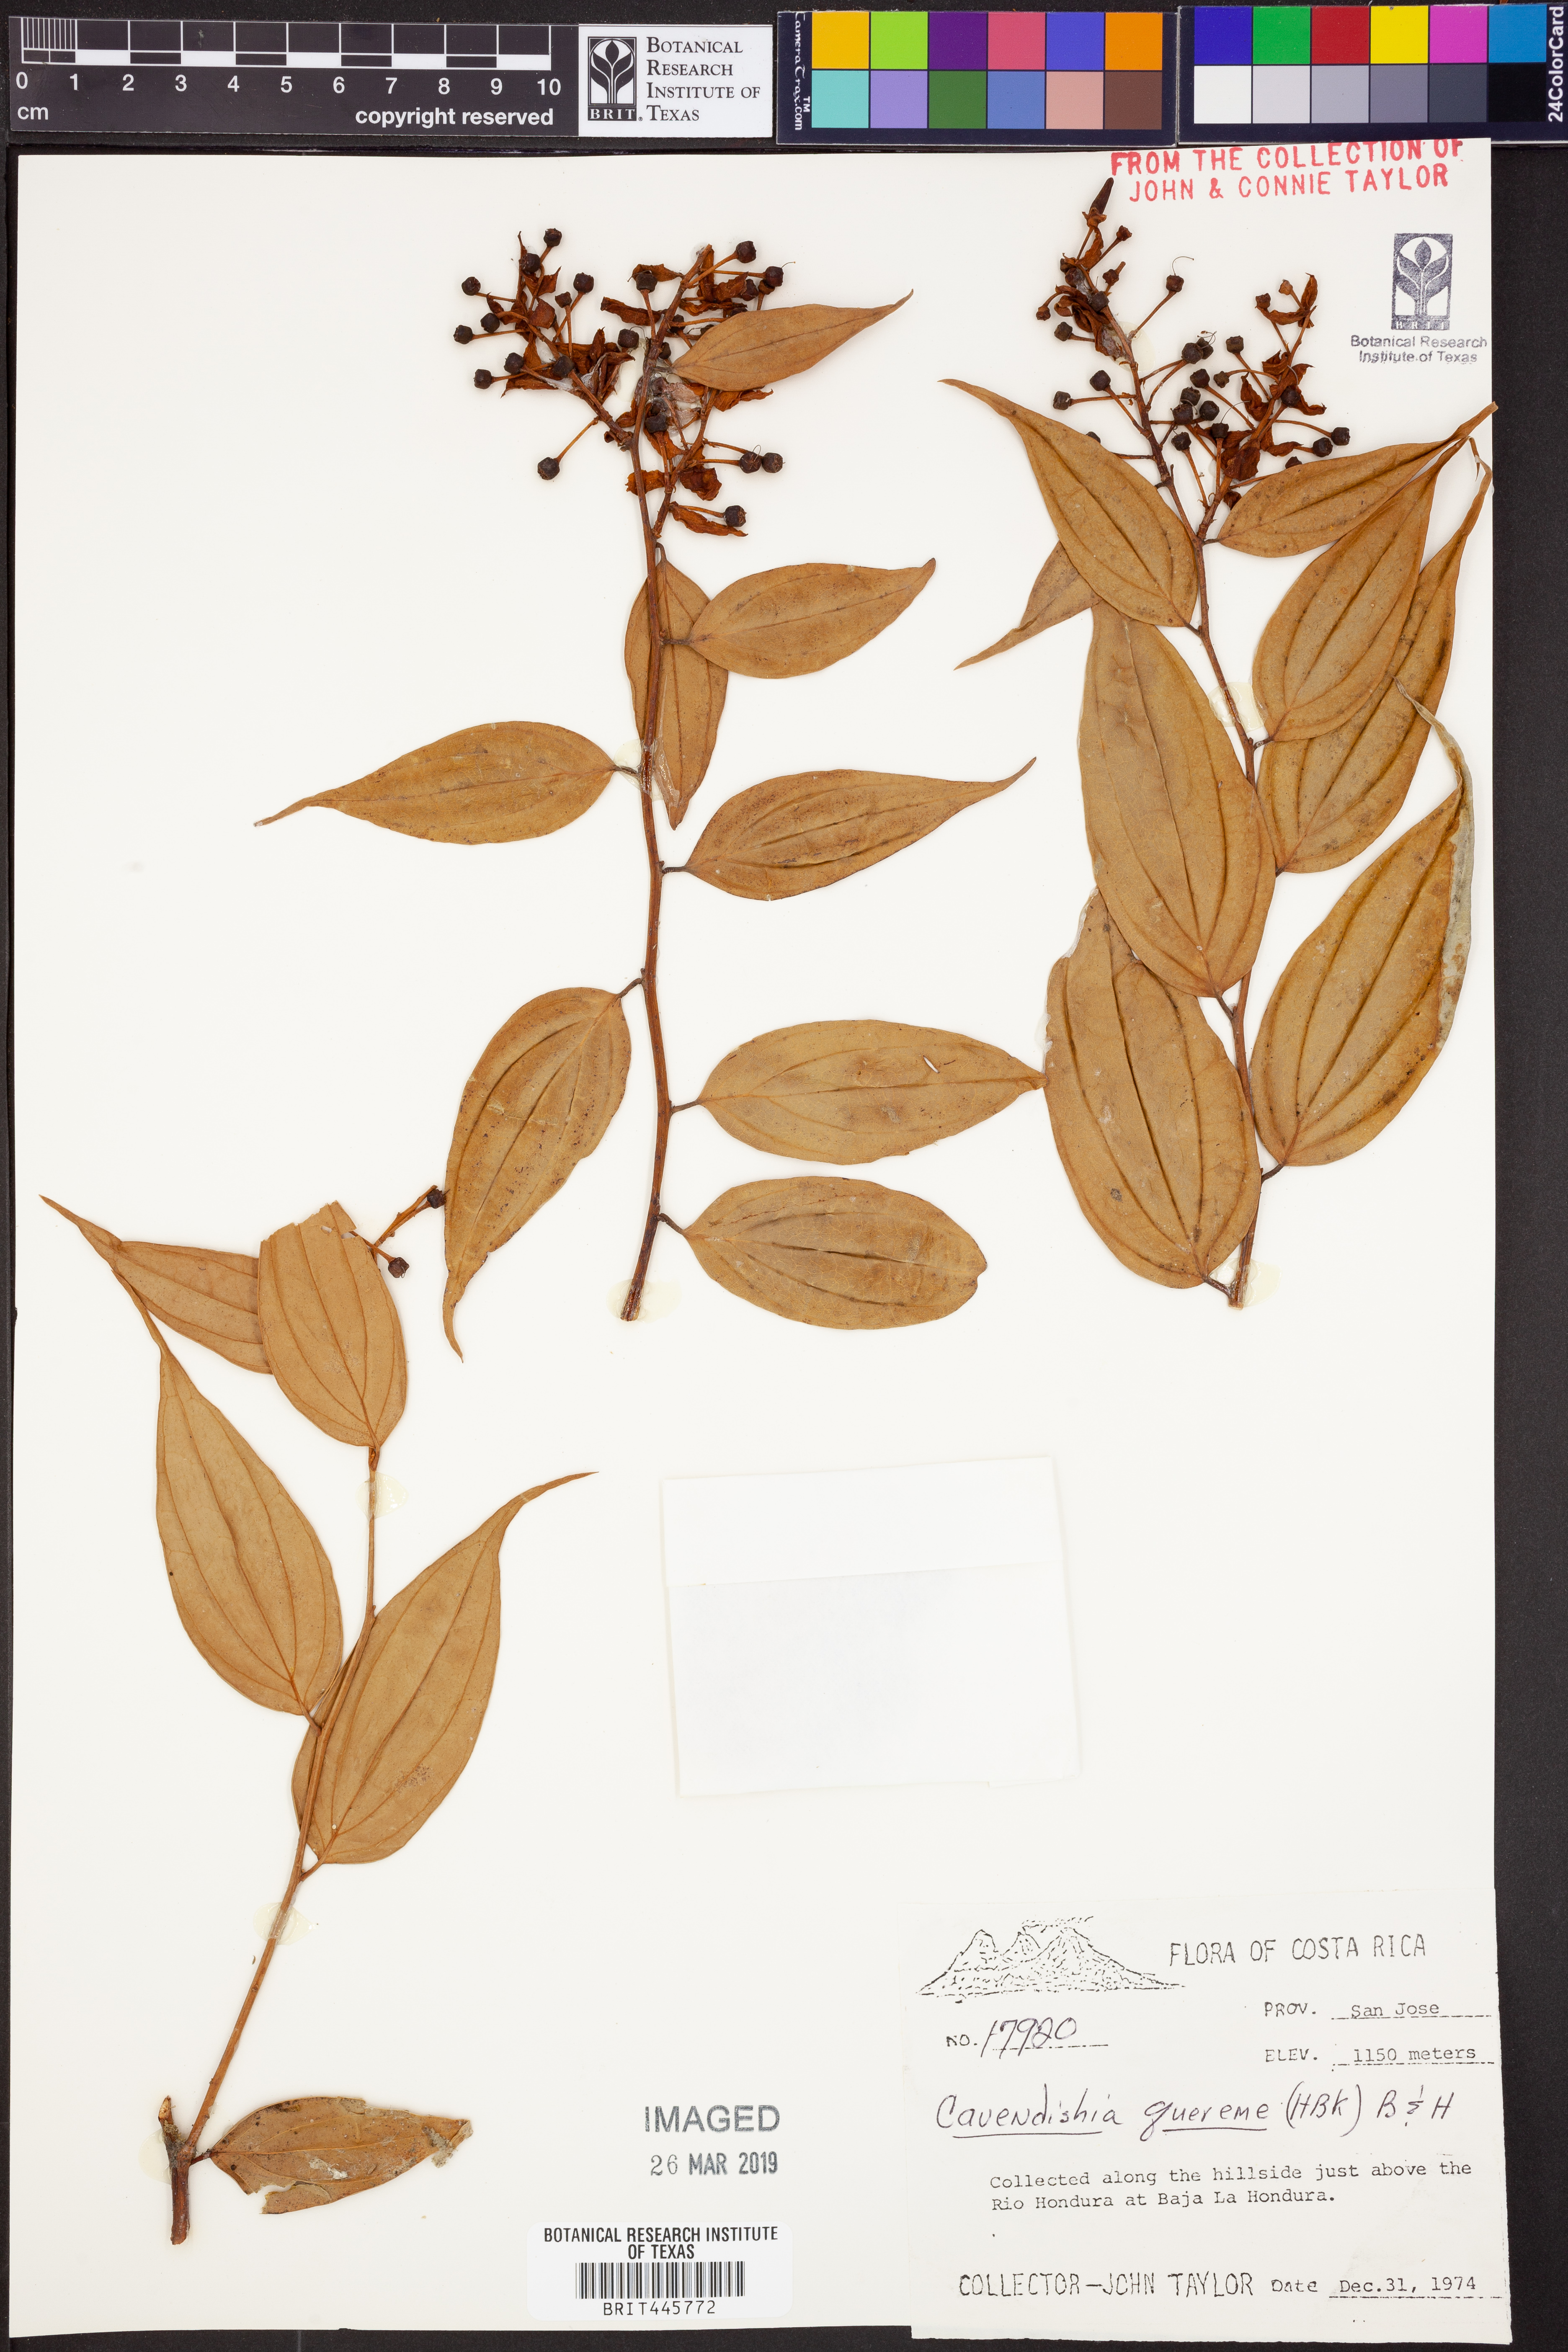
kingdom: Plantae
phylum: Tracheophyta
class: Magnoliopsida
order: Ericales
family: Ericaceae
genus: Cavendishia
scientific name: Cavendishia quereme
